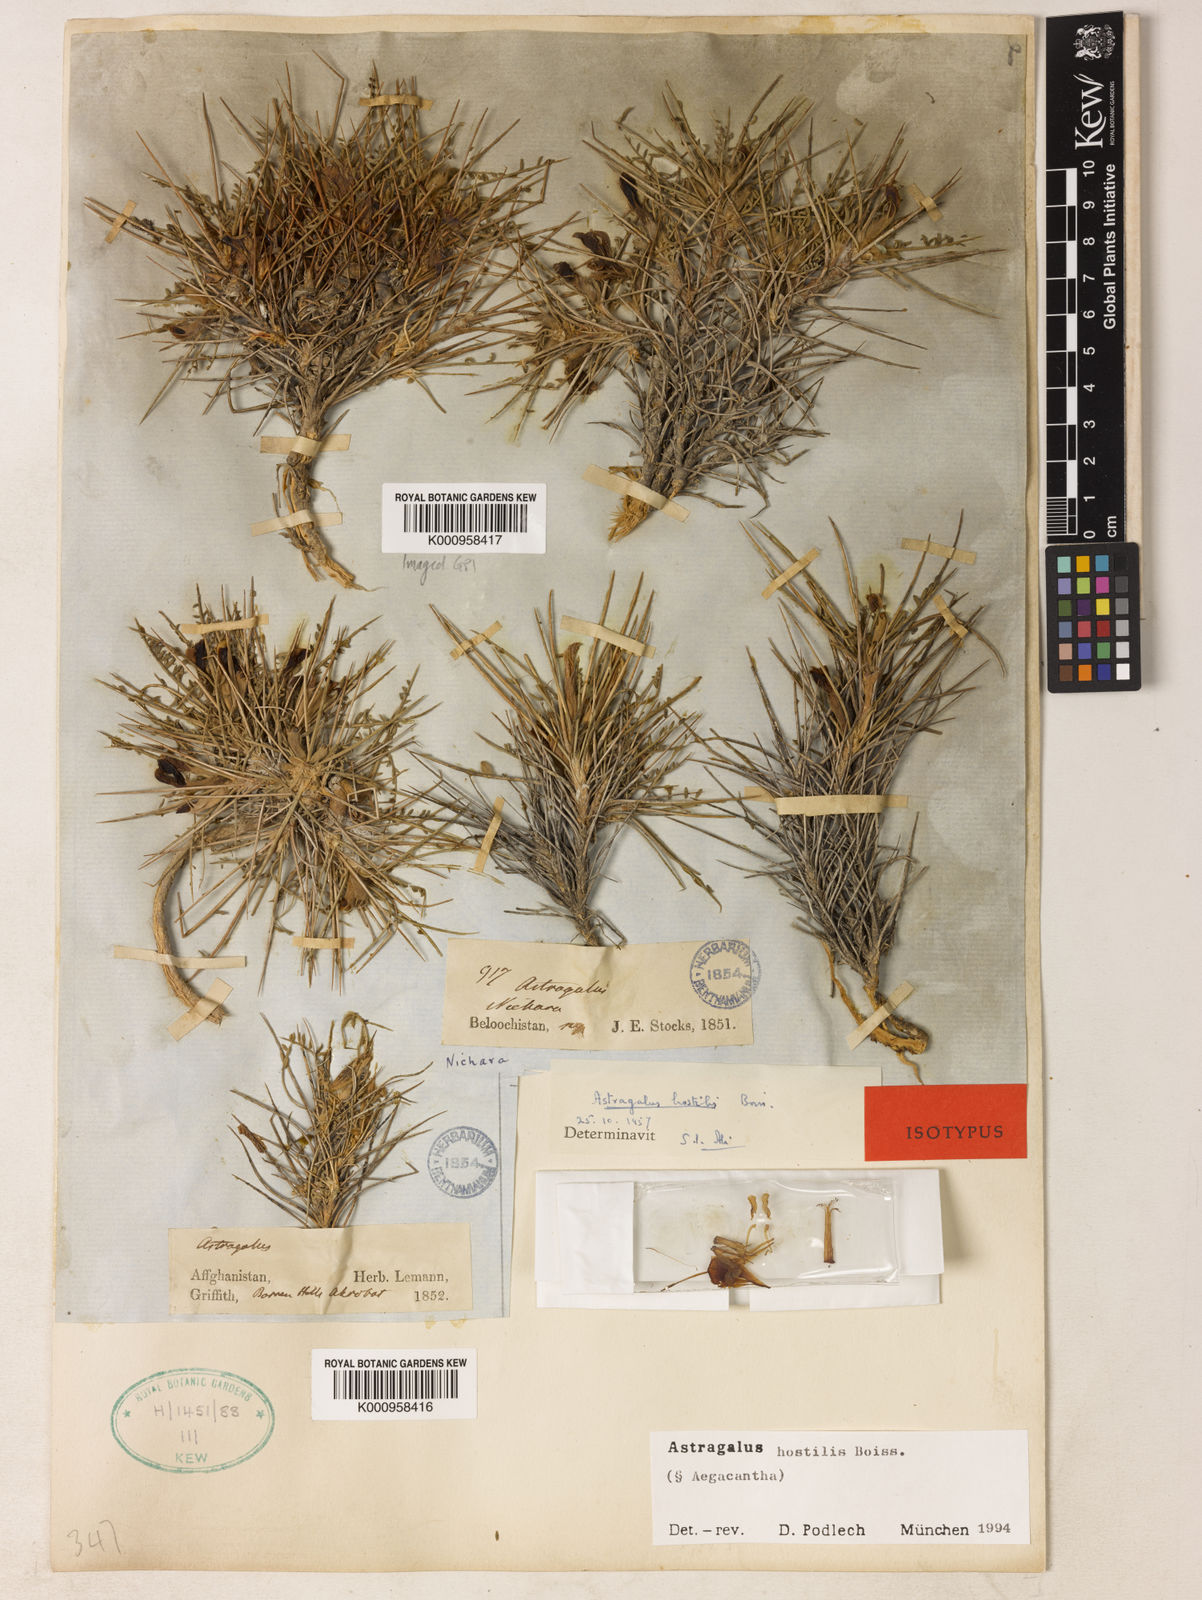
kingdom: Plantae
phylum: Tracheophyta
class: Magnoliopsida
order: Fabales
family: Fabaceae
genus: Astragalus
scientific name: Astragalus
